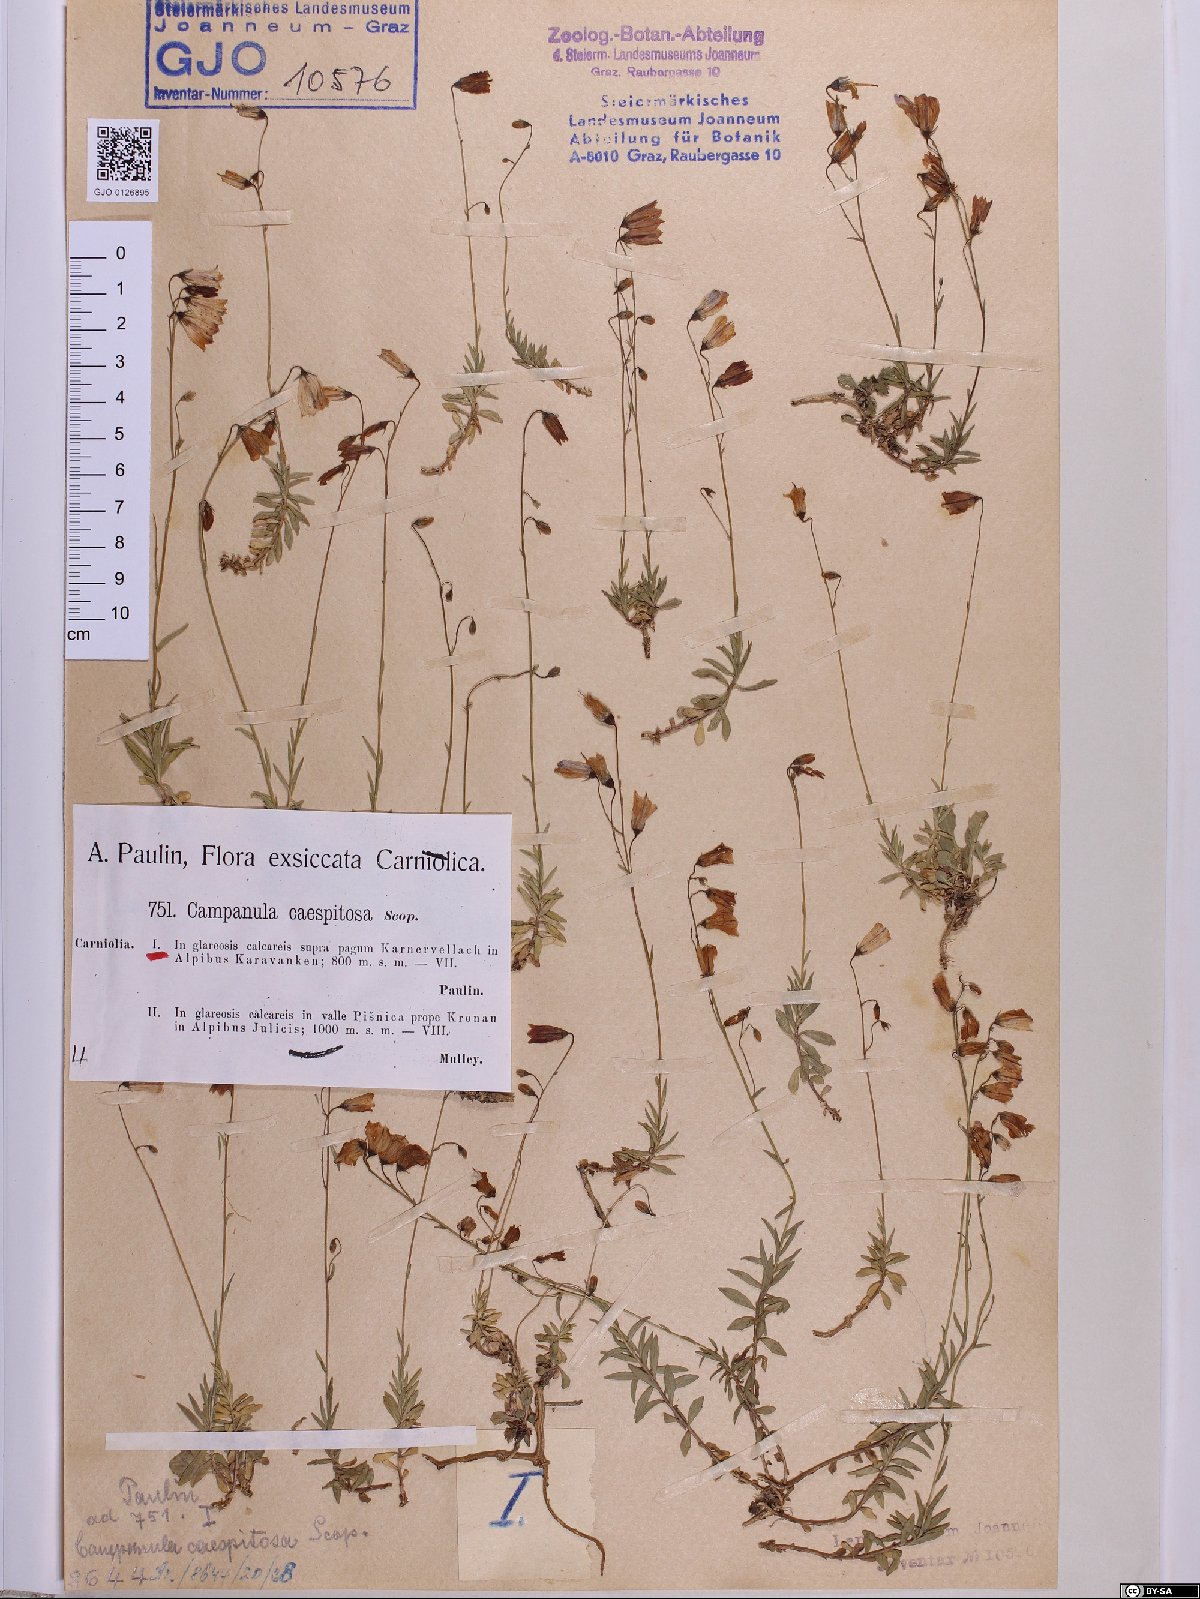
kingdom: Plantae
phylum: Tracheophyta
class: Magnoliopsida
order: Asterales
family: Campanulaceae
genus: Campanula
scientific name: Campanula cespitosa
